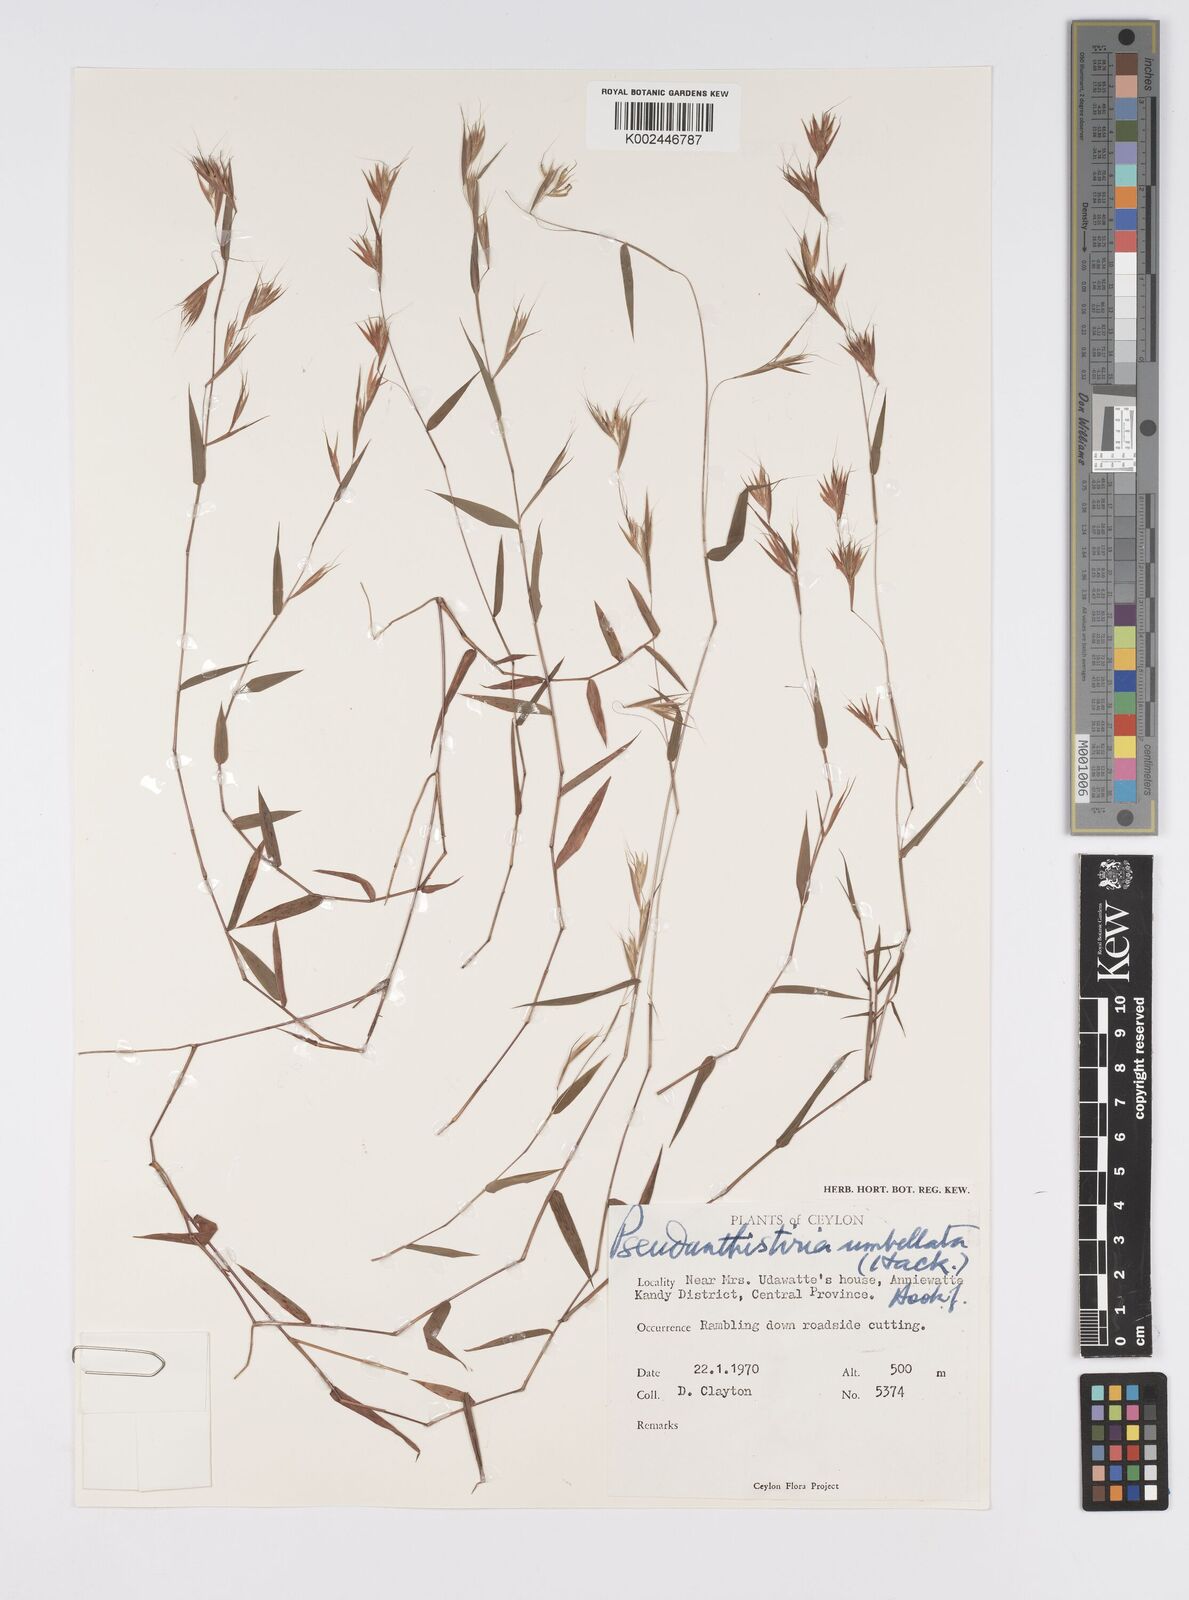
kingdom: Plantae
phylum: Tracheophyta
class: Liliopsida
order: Poales
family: Poaceae
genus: Pseudanthistiria
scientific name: Pseudanthistiria umbellata
